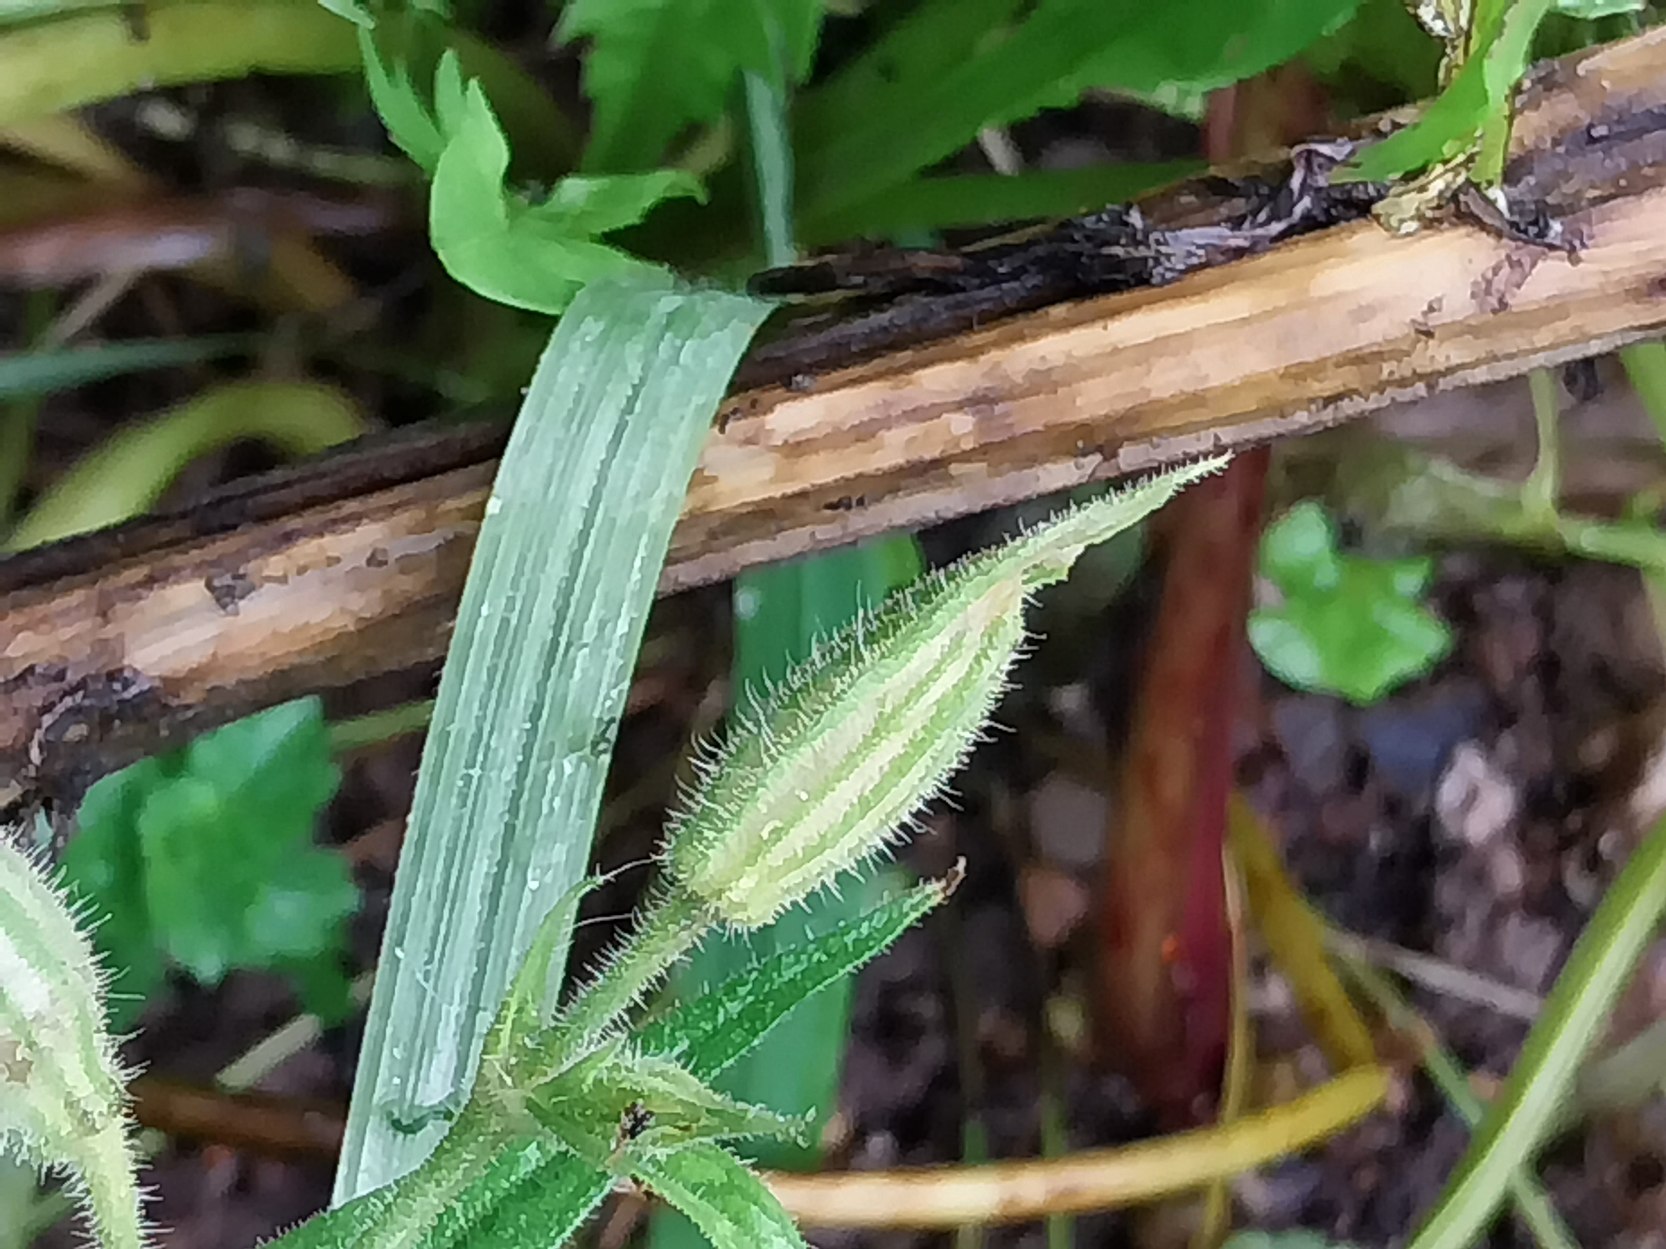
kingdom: Plantae
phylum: Tracheophyta
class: Magnoliopsida
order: Caryophyllales
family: Caryophyllaceae
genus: Silene
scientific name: Silene noctiflora
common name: Nat-limurt
